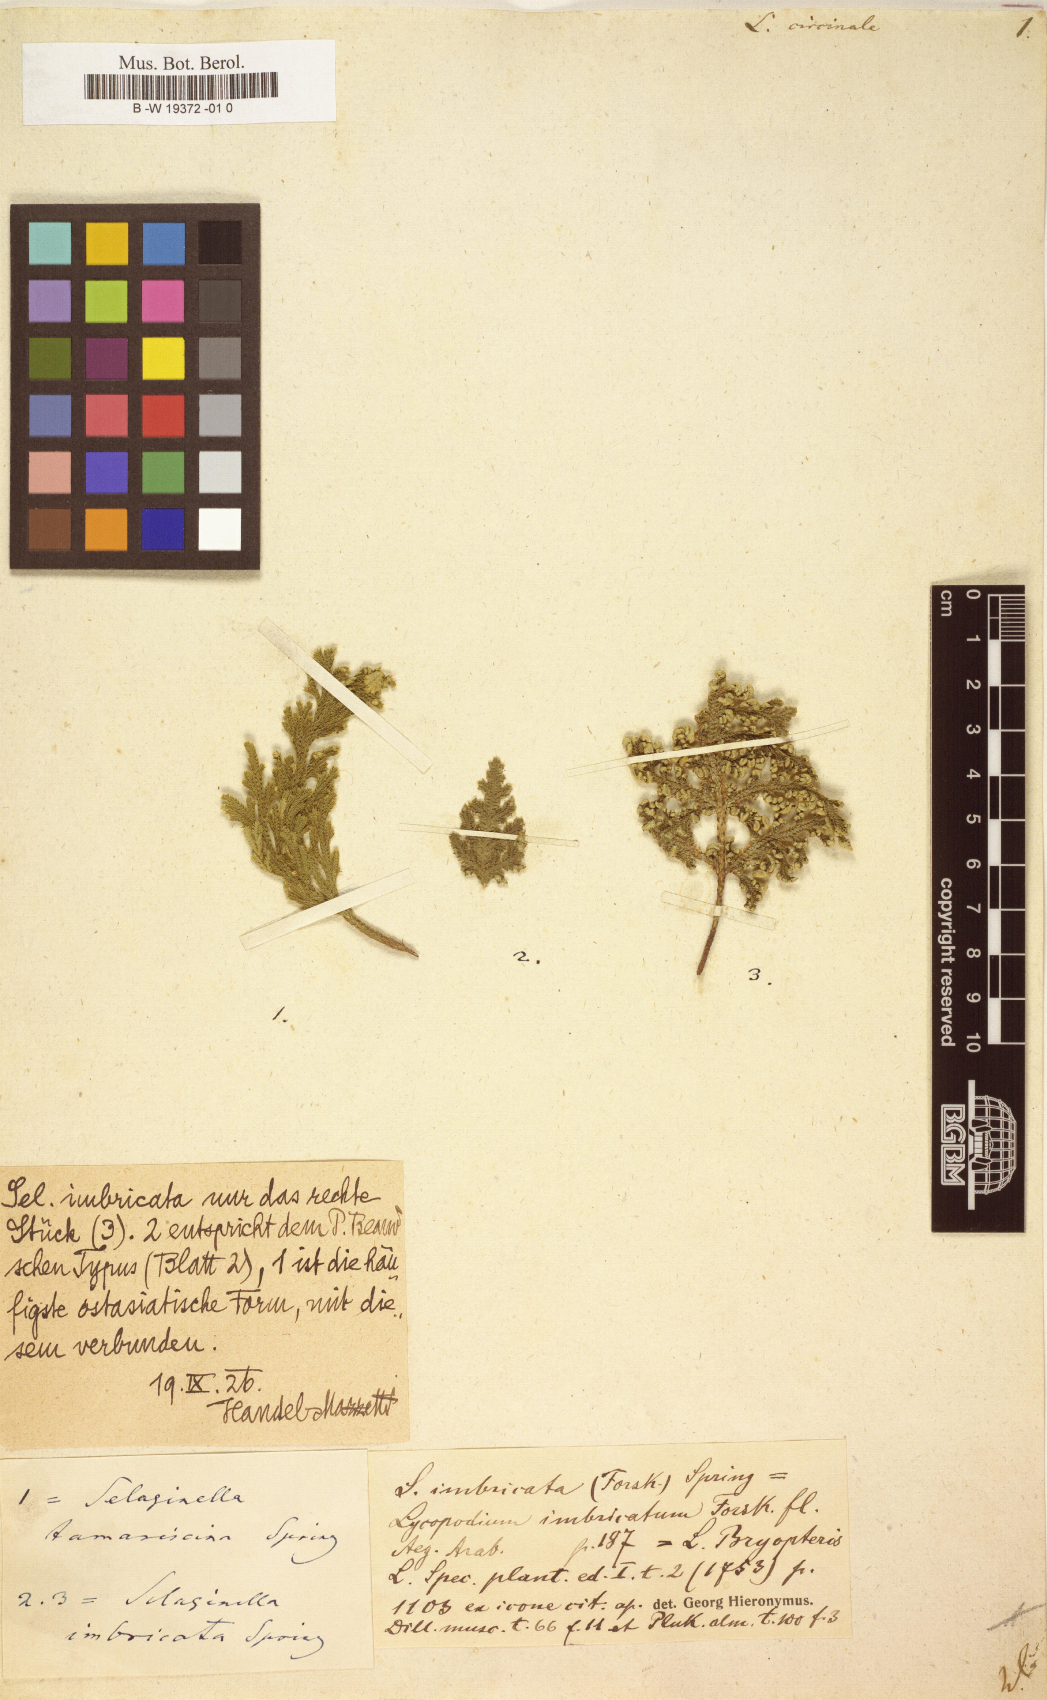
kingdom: Plantae
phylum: Tracheophyta
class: Lycopodiopsida
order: Lycopodiales
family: Lycopodiaceae
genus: Lycopodium
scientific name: Lycopodium circinale
